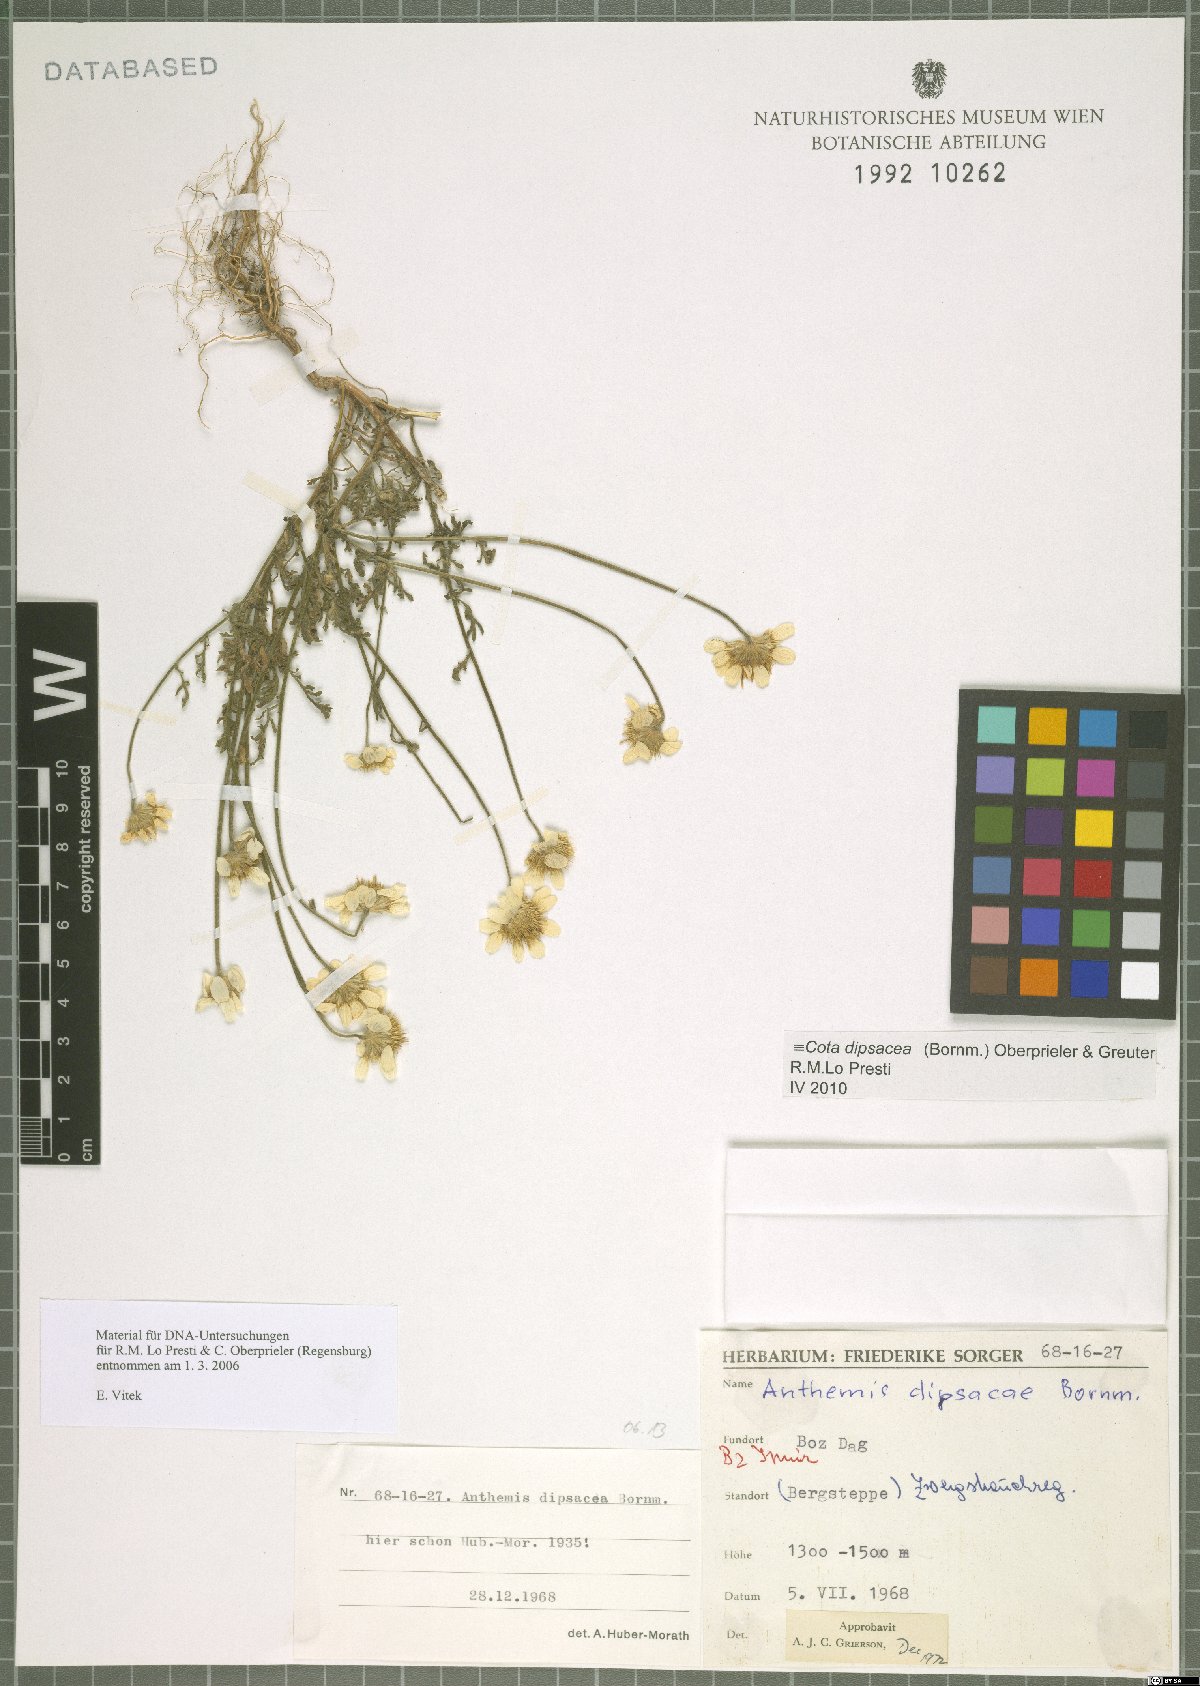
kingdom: Plantae
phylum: Tracheophyta
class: Magnoliopsida
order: Asterales
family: Asteraceae
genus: Cota
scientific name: Cota dipsacea
